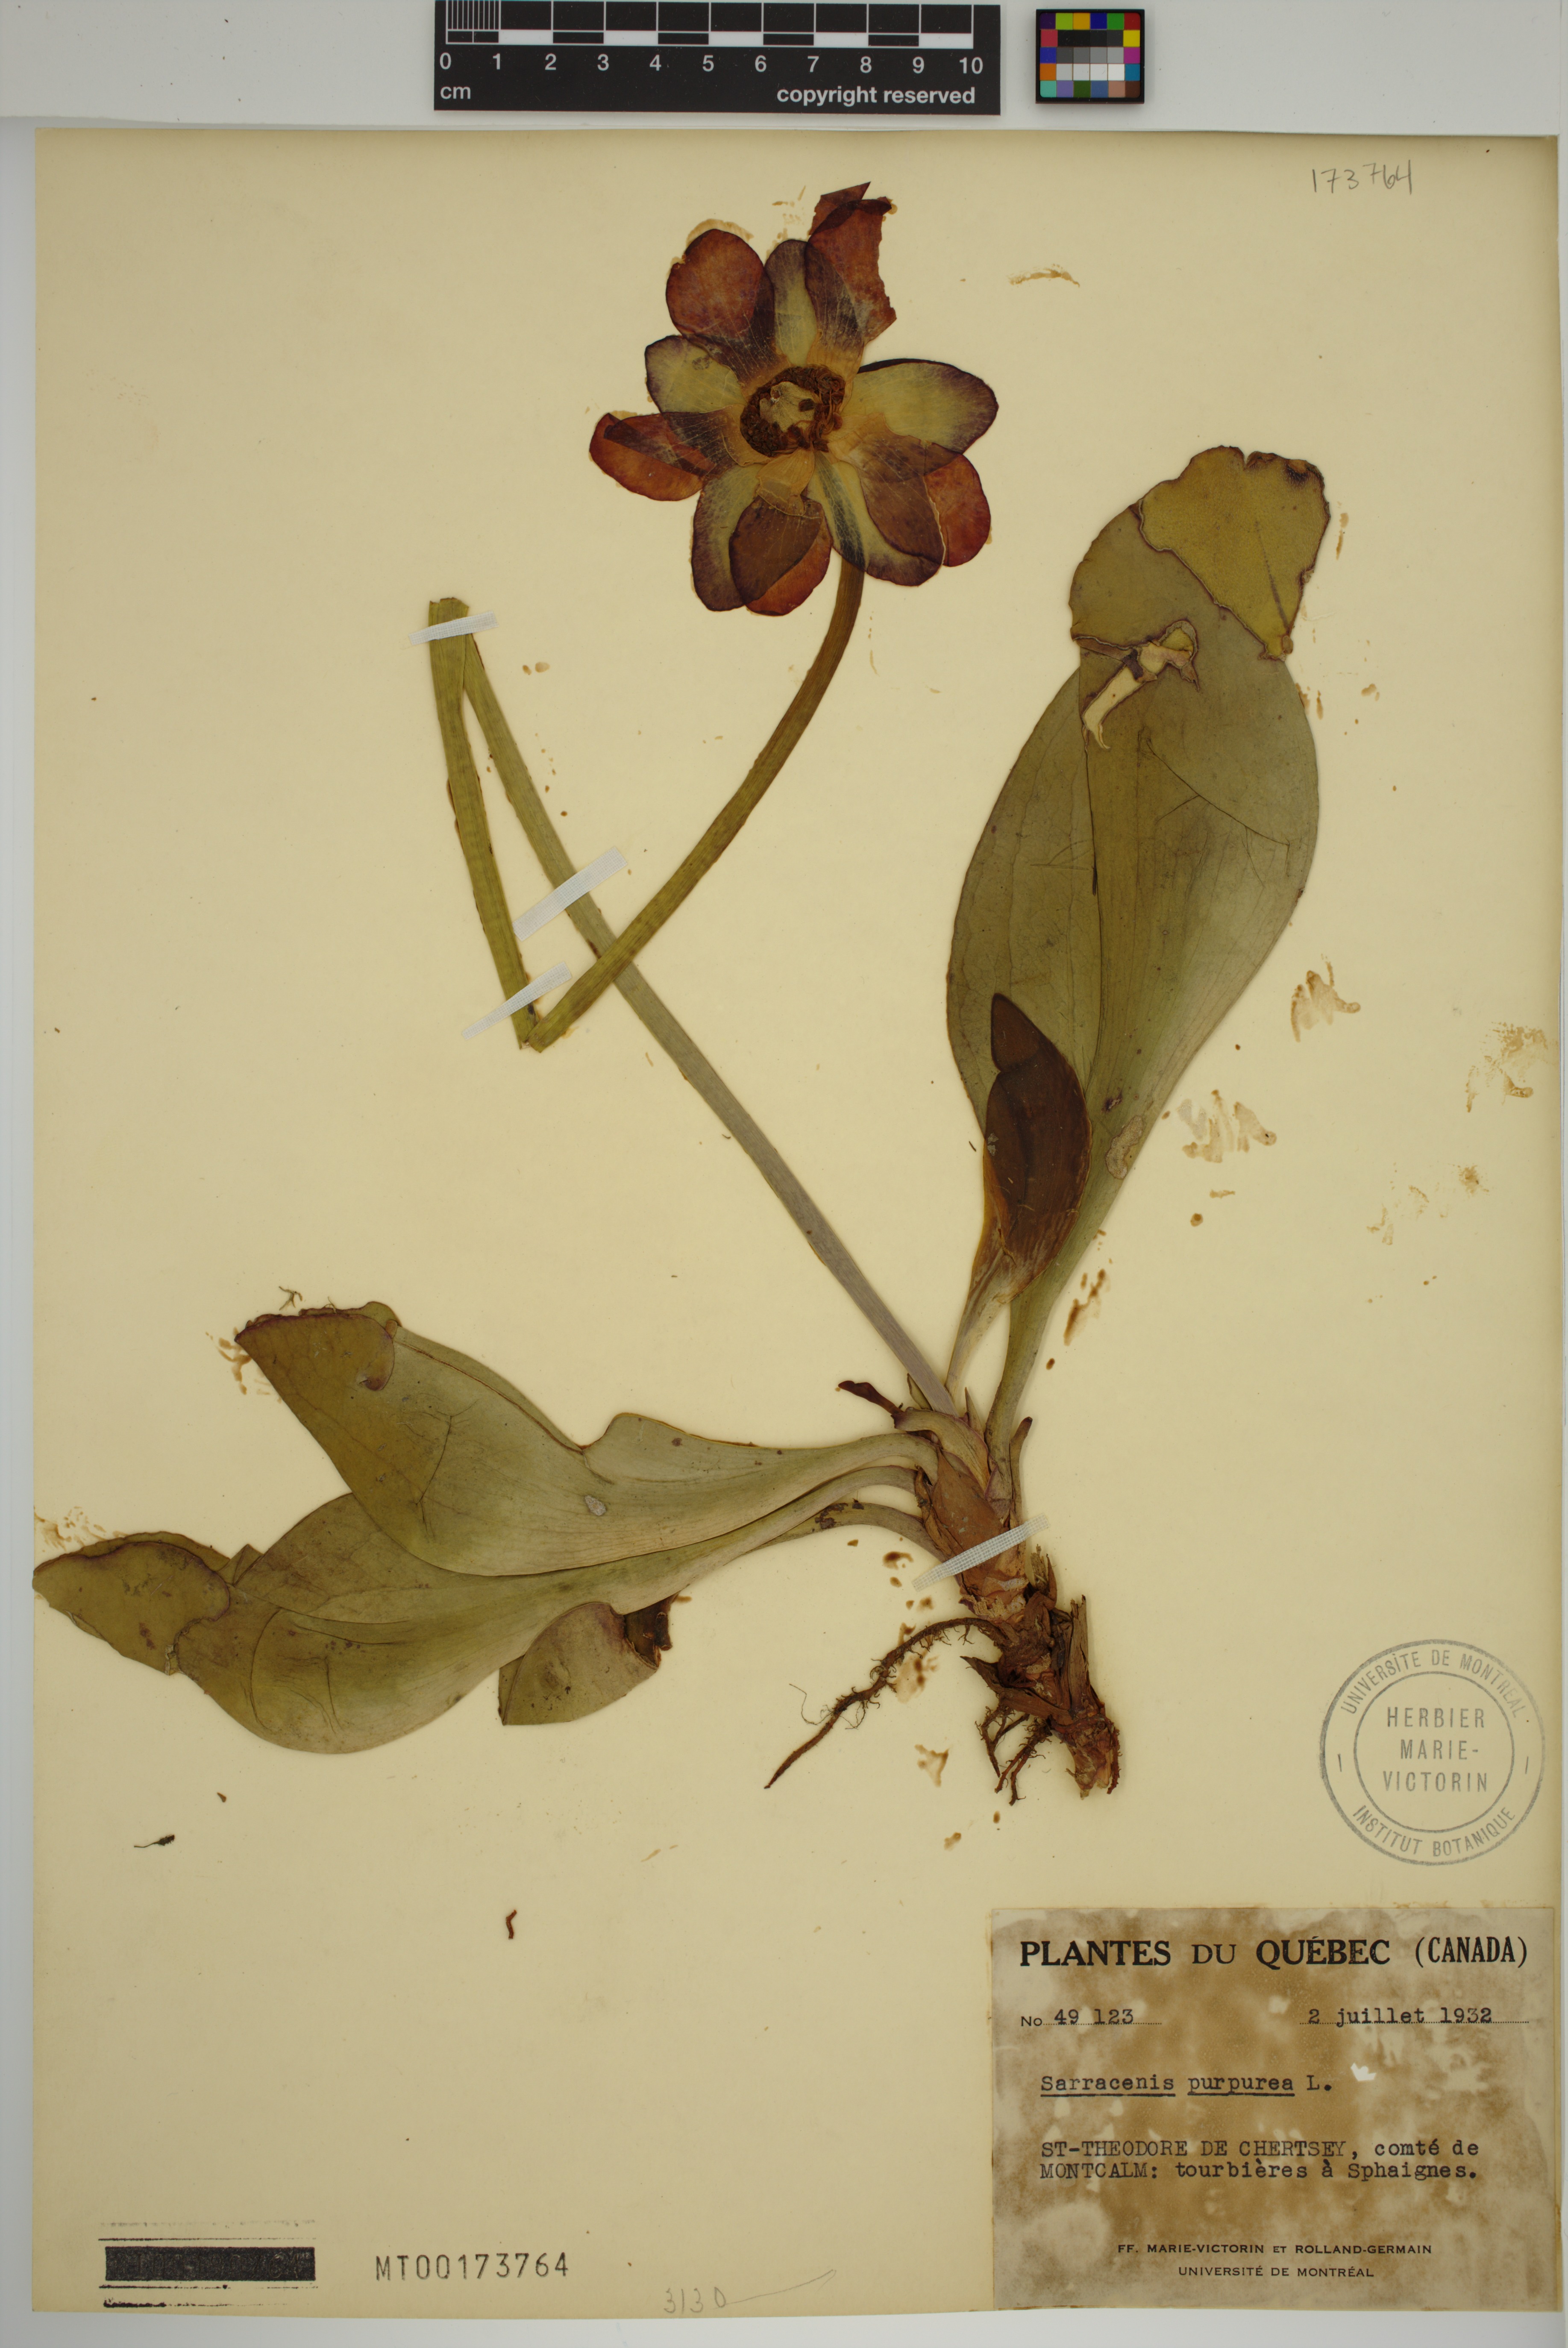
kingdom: Plantae
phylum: Tracheophyta
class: Magnoliopsida
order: Ericales
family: Sarraceniaceae
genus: Sarracenia
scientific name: Sarracenia purpurea
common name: Pitcherplant
